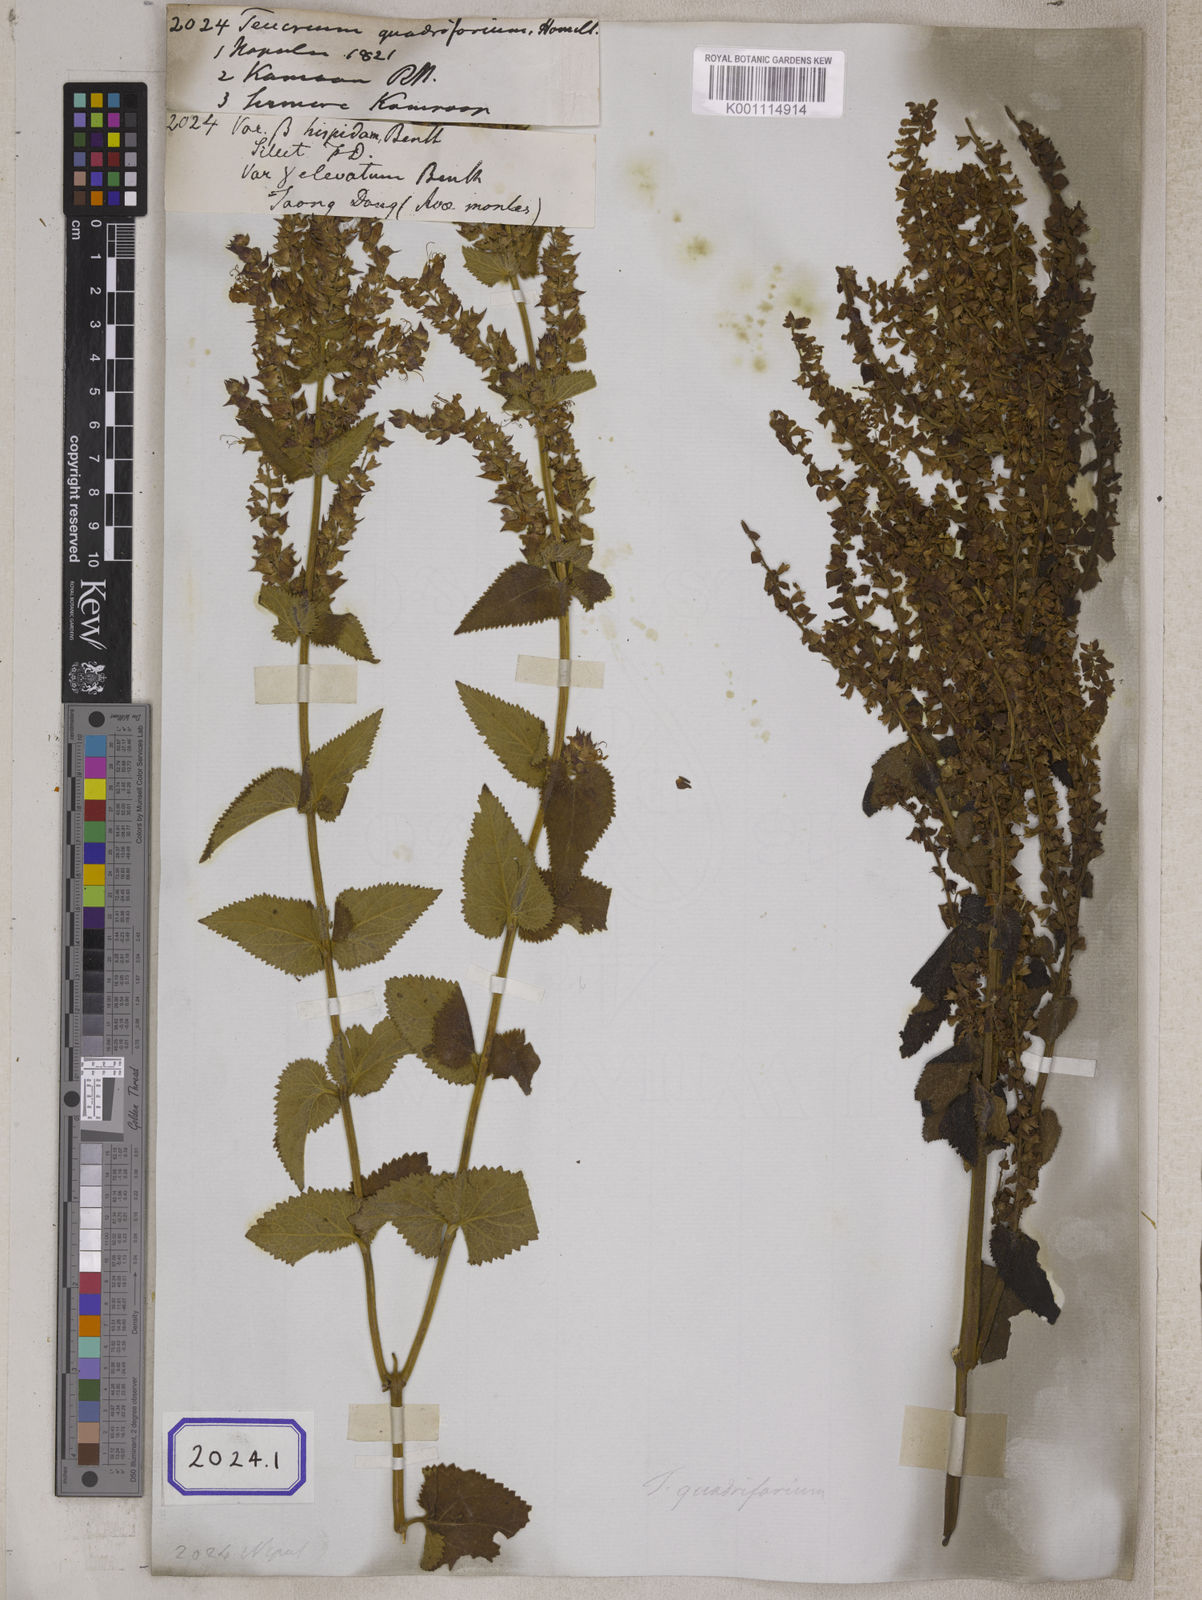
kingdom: Plantae
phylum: Tracheophyta
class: Magnoliopsida
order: Lamiales
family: Lamiaceae
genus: Teucrium
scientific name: Teucrium
